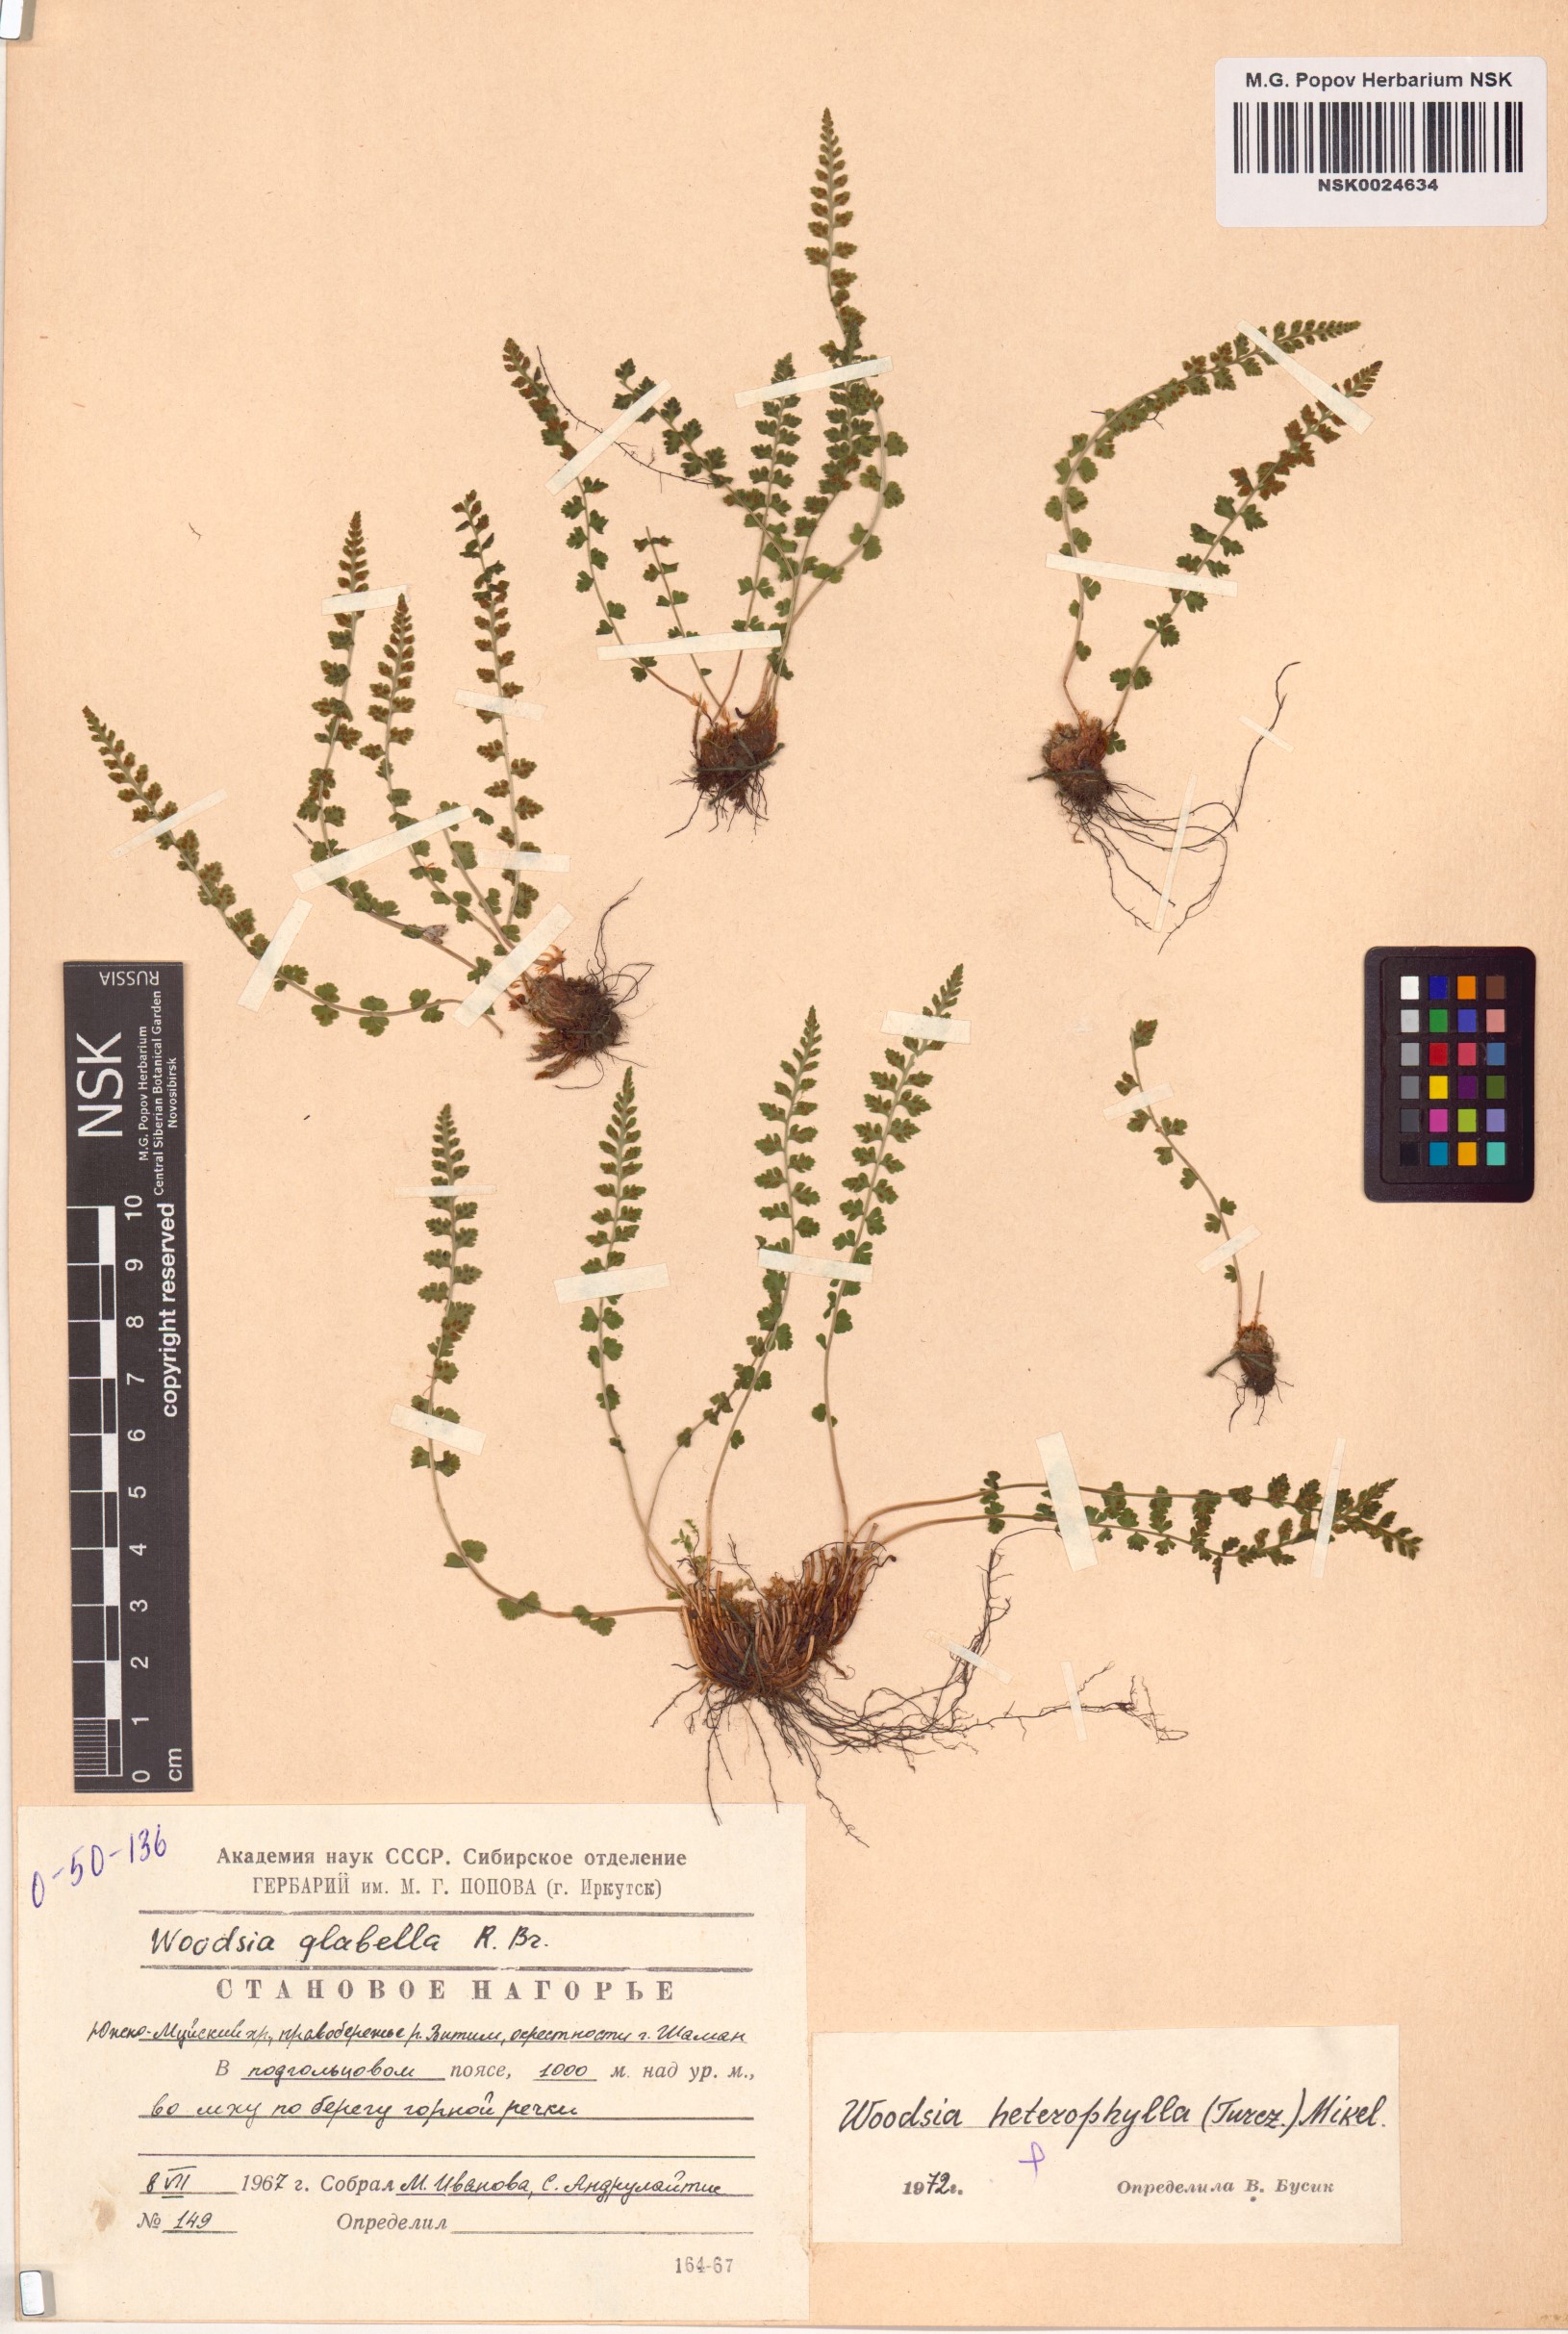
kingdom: Plantae
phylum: Tracheophyta
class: Polypodiopsida
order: Polypodiales
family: Woodsiaceae
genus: Woodsia
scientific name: Woodsia pulchella
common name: Graceful woodsia
